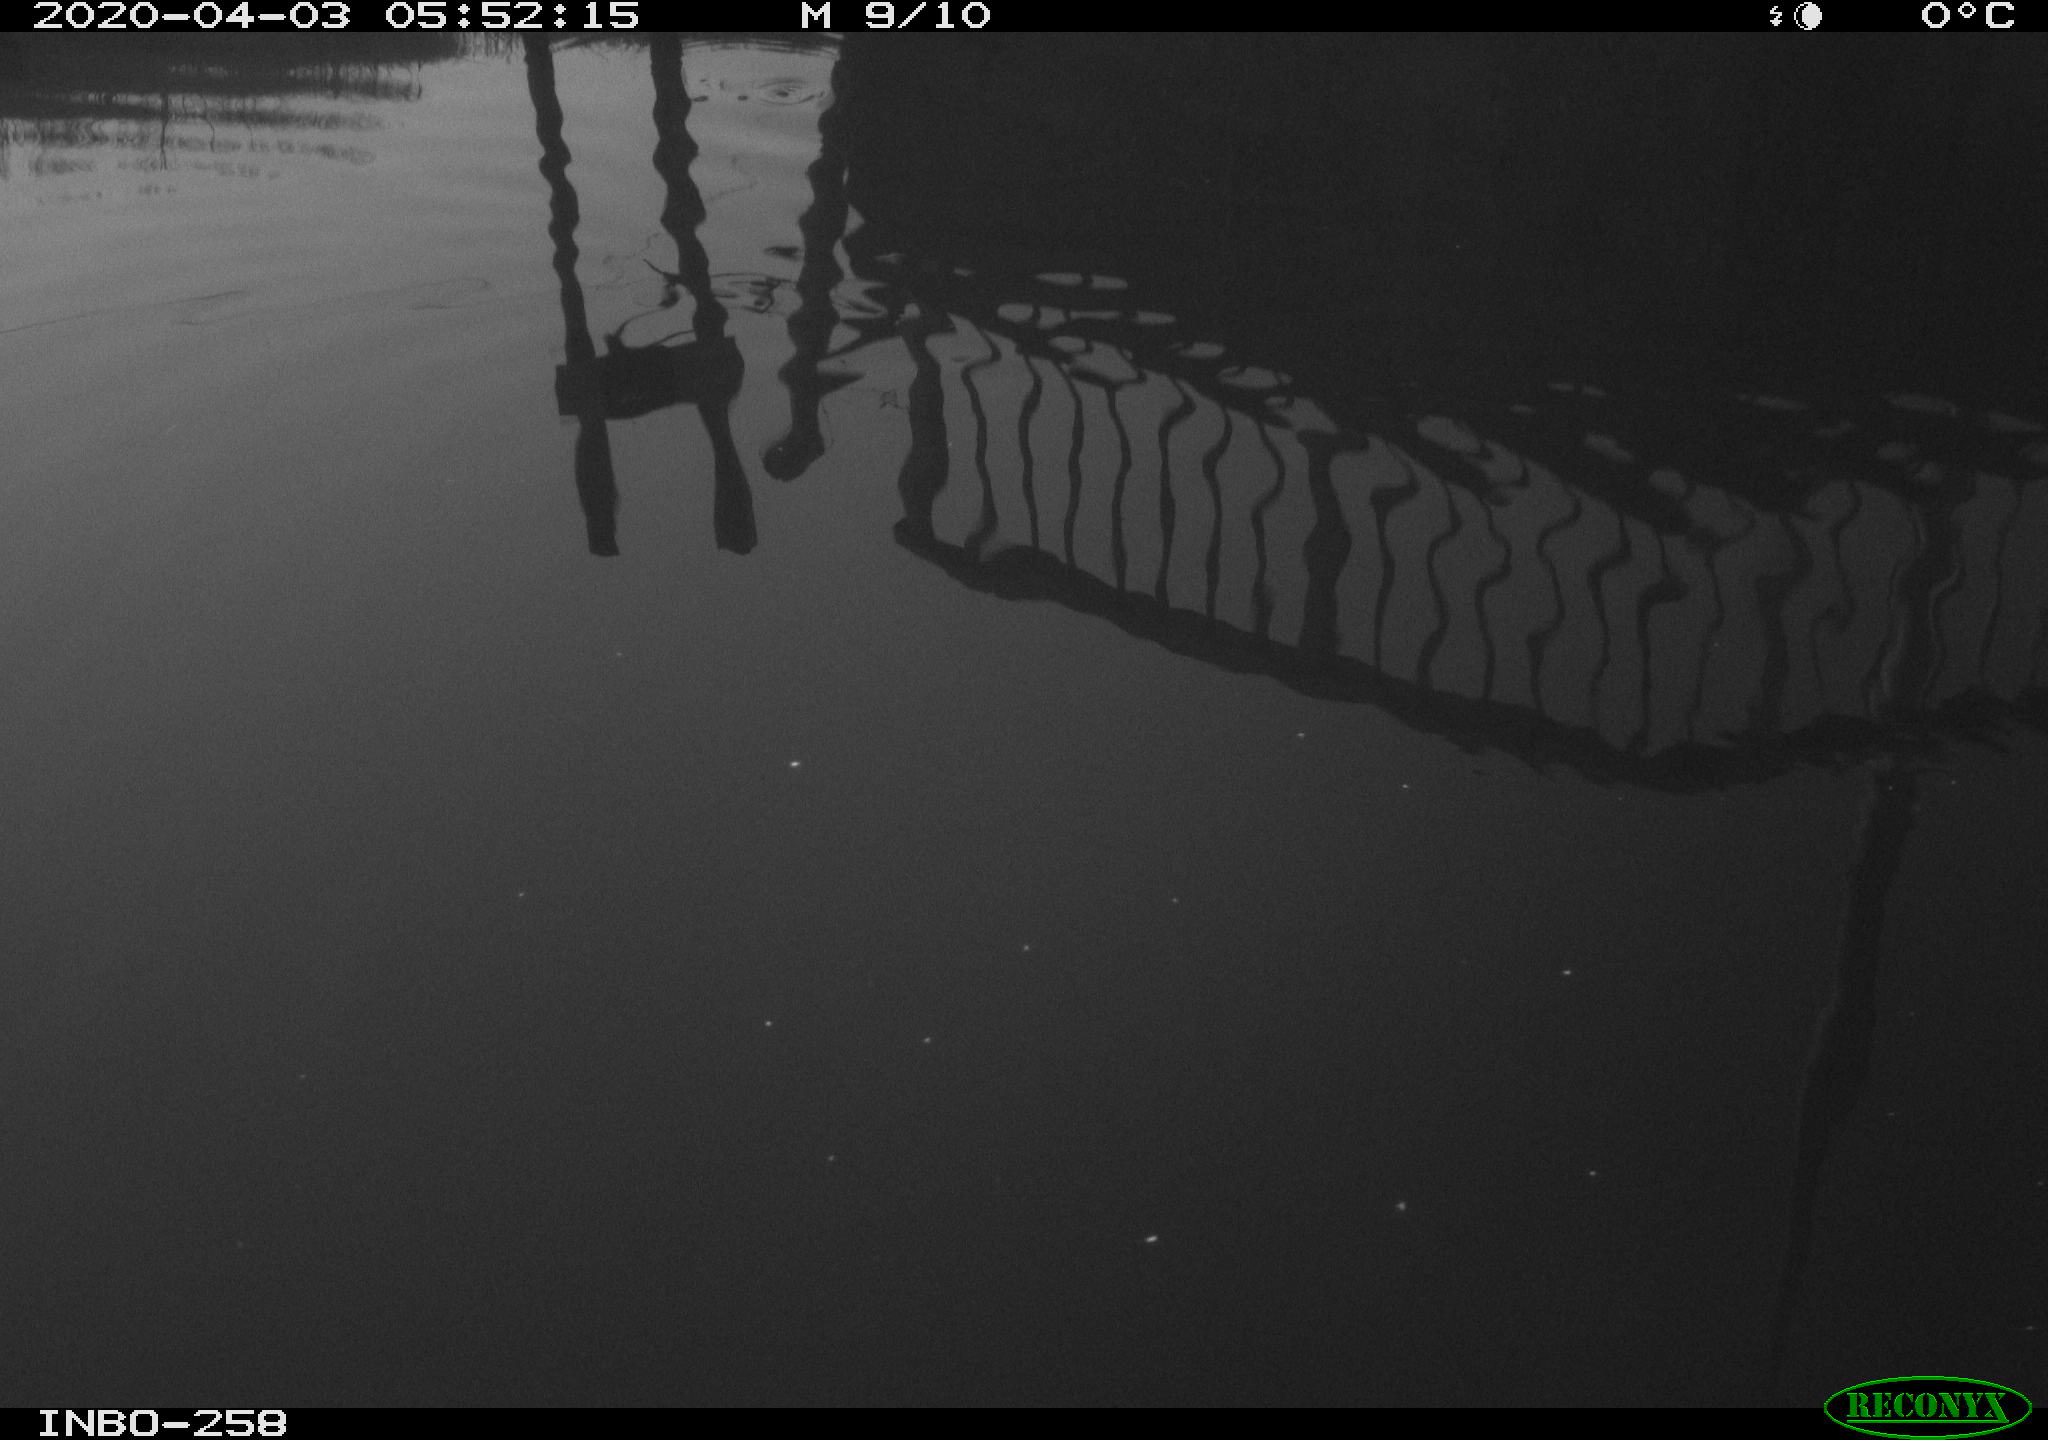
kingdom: Animalia
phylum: Chordata
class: Aves
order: Gruiformes
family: Rallidae
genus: Gallinula
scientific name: Gallinula chloropus
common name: Common moorhen
